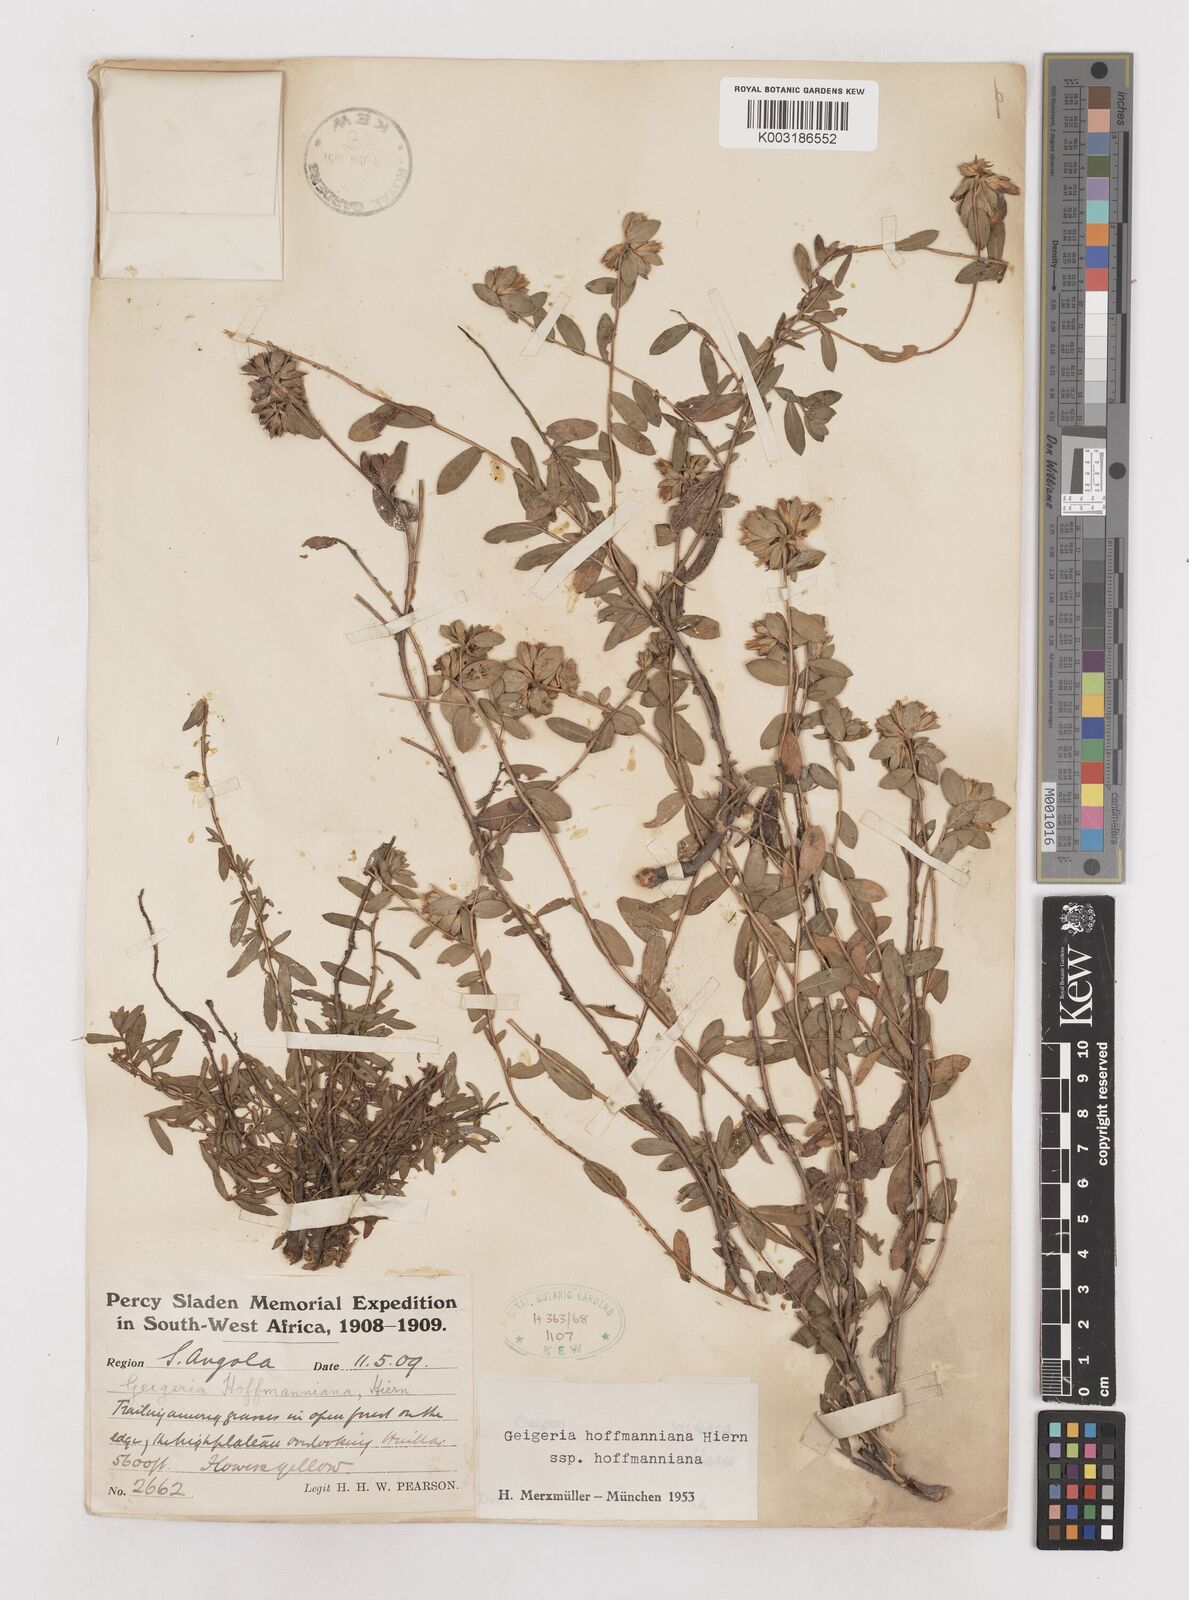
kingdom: Plantae
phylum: Tracheophyta
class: Magnoliopsida
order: Asterales
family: Asteraceae
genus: Geigeria
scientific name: Geigeria hoffmanniana
